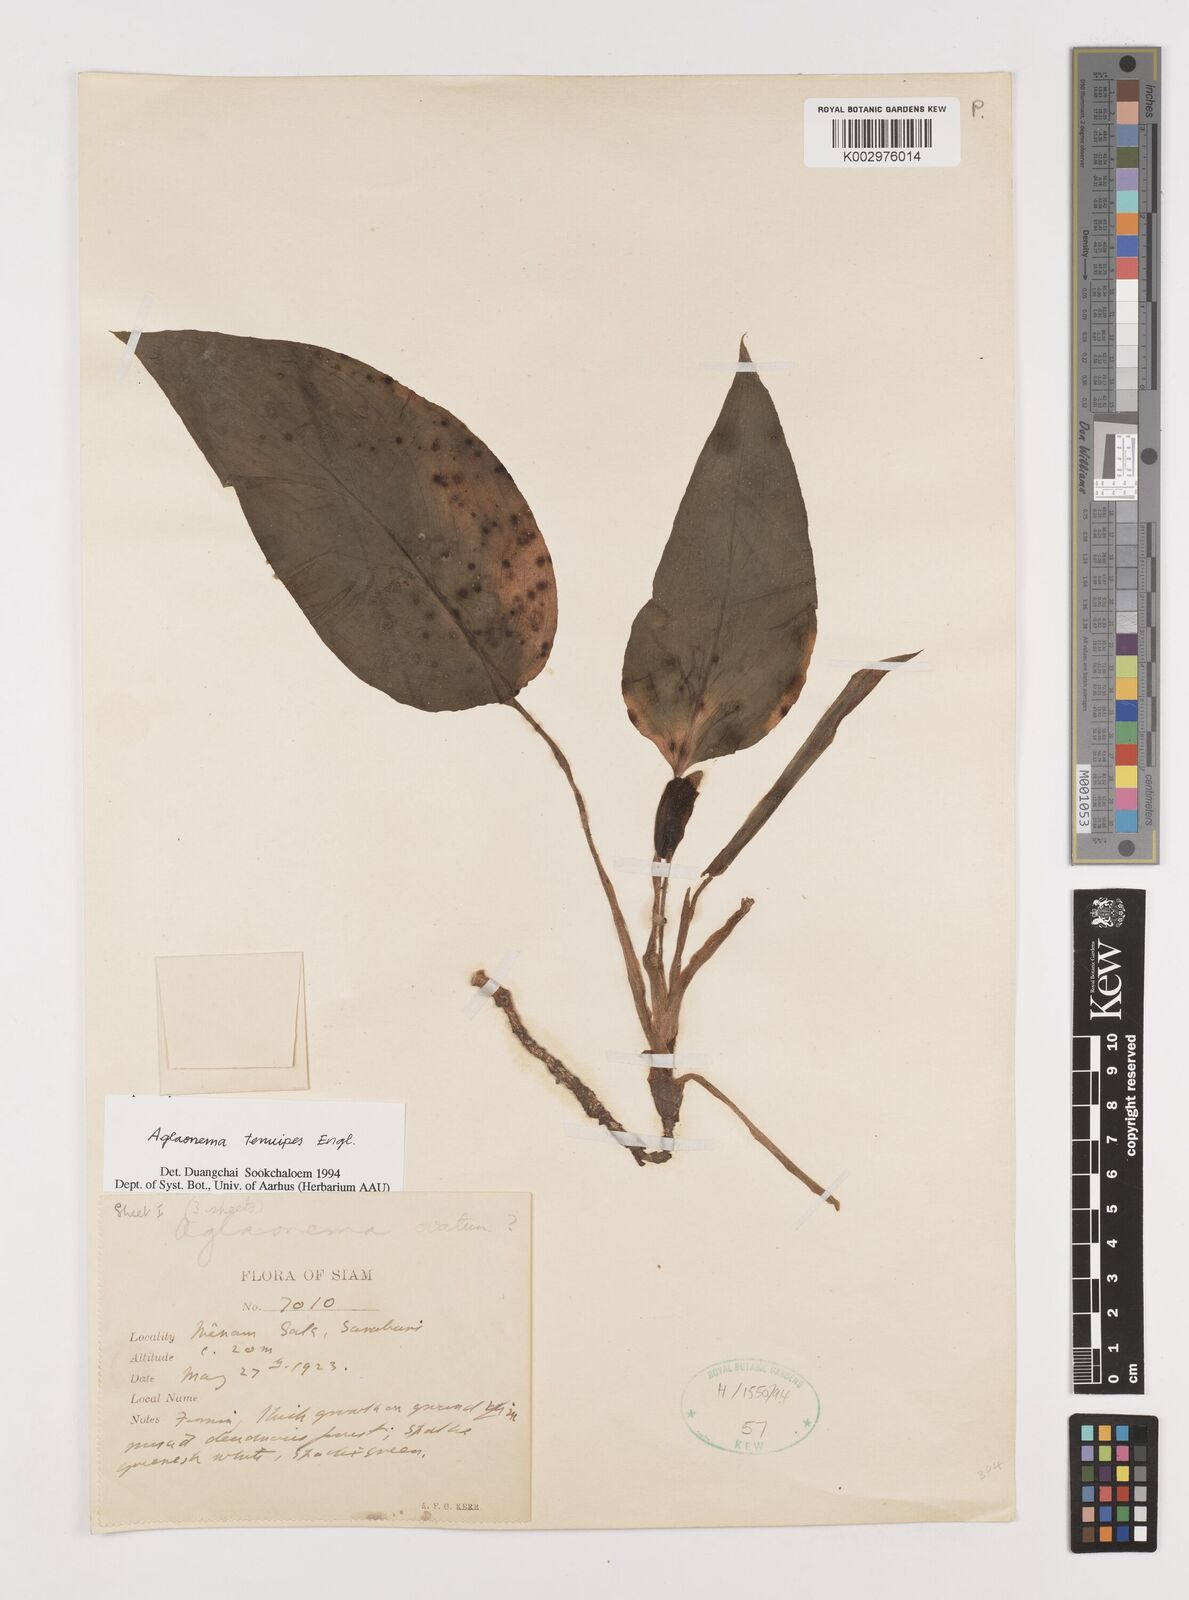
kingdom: Plantae
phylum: Tracheophyta
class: Liliopsida
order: Alismatales
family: Araceae
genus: Aglaonema
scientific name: Aglaonema simplex
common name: Malayan-sword
